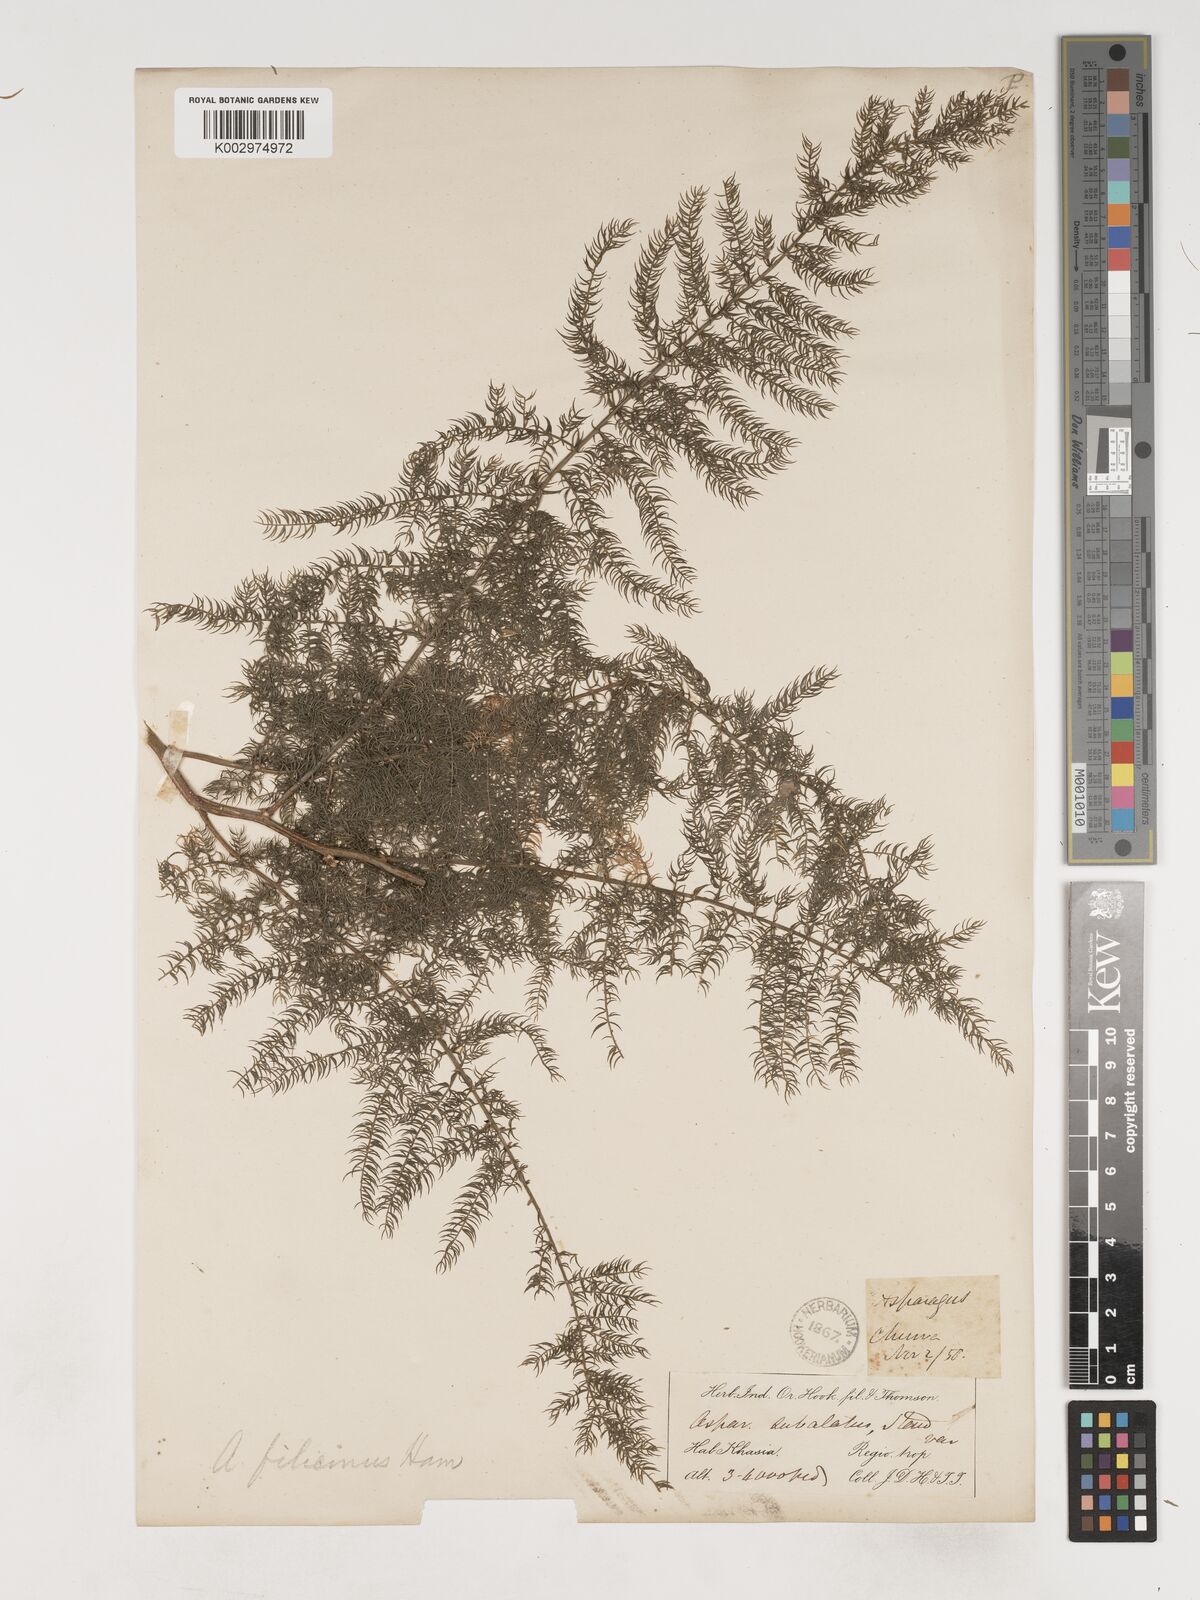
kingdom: Plantae
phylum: Tracheophyta
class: Liliopsida
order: Asparagales
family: Asparagaceae
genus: Asparagus
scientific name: Asparagus filicinus
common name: Fern asparagus
